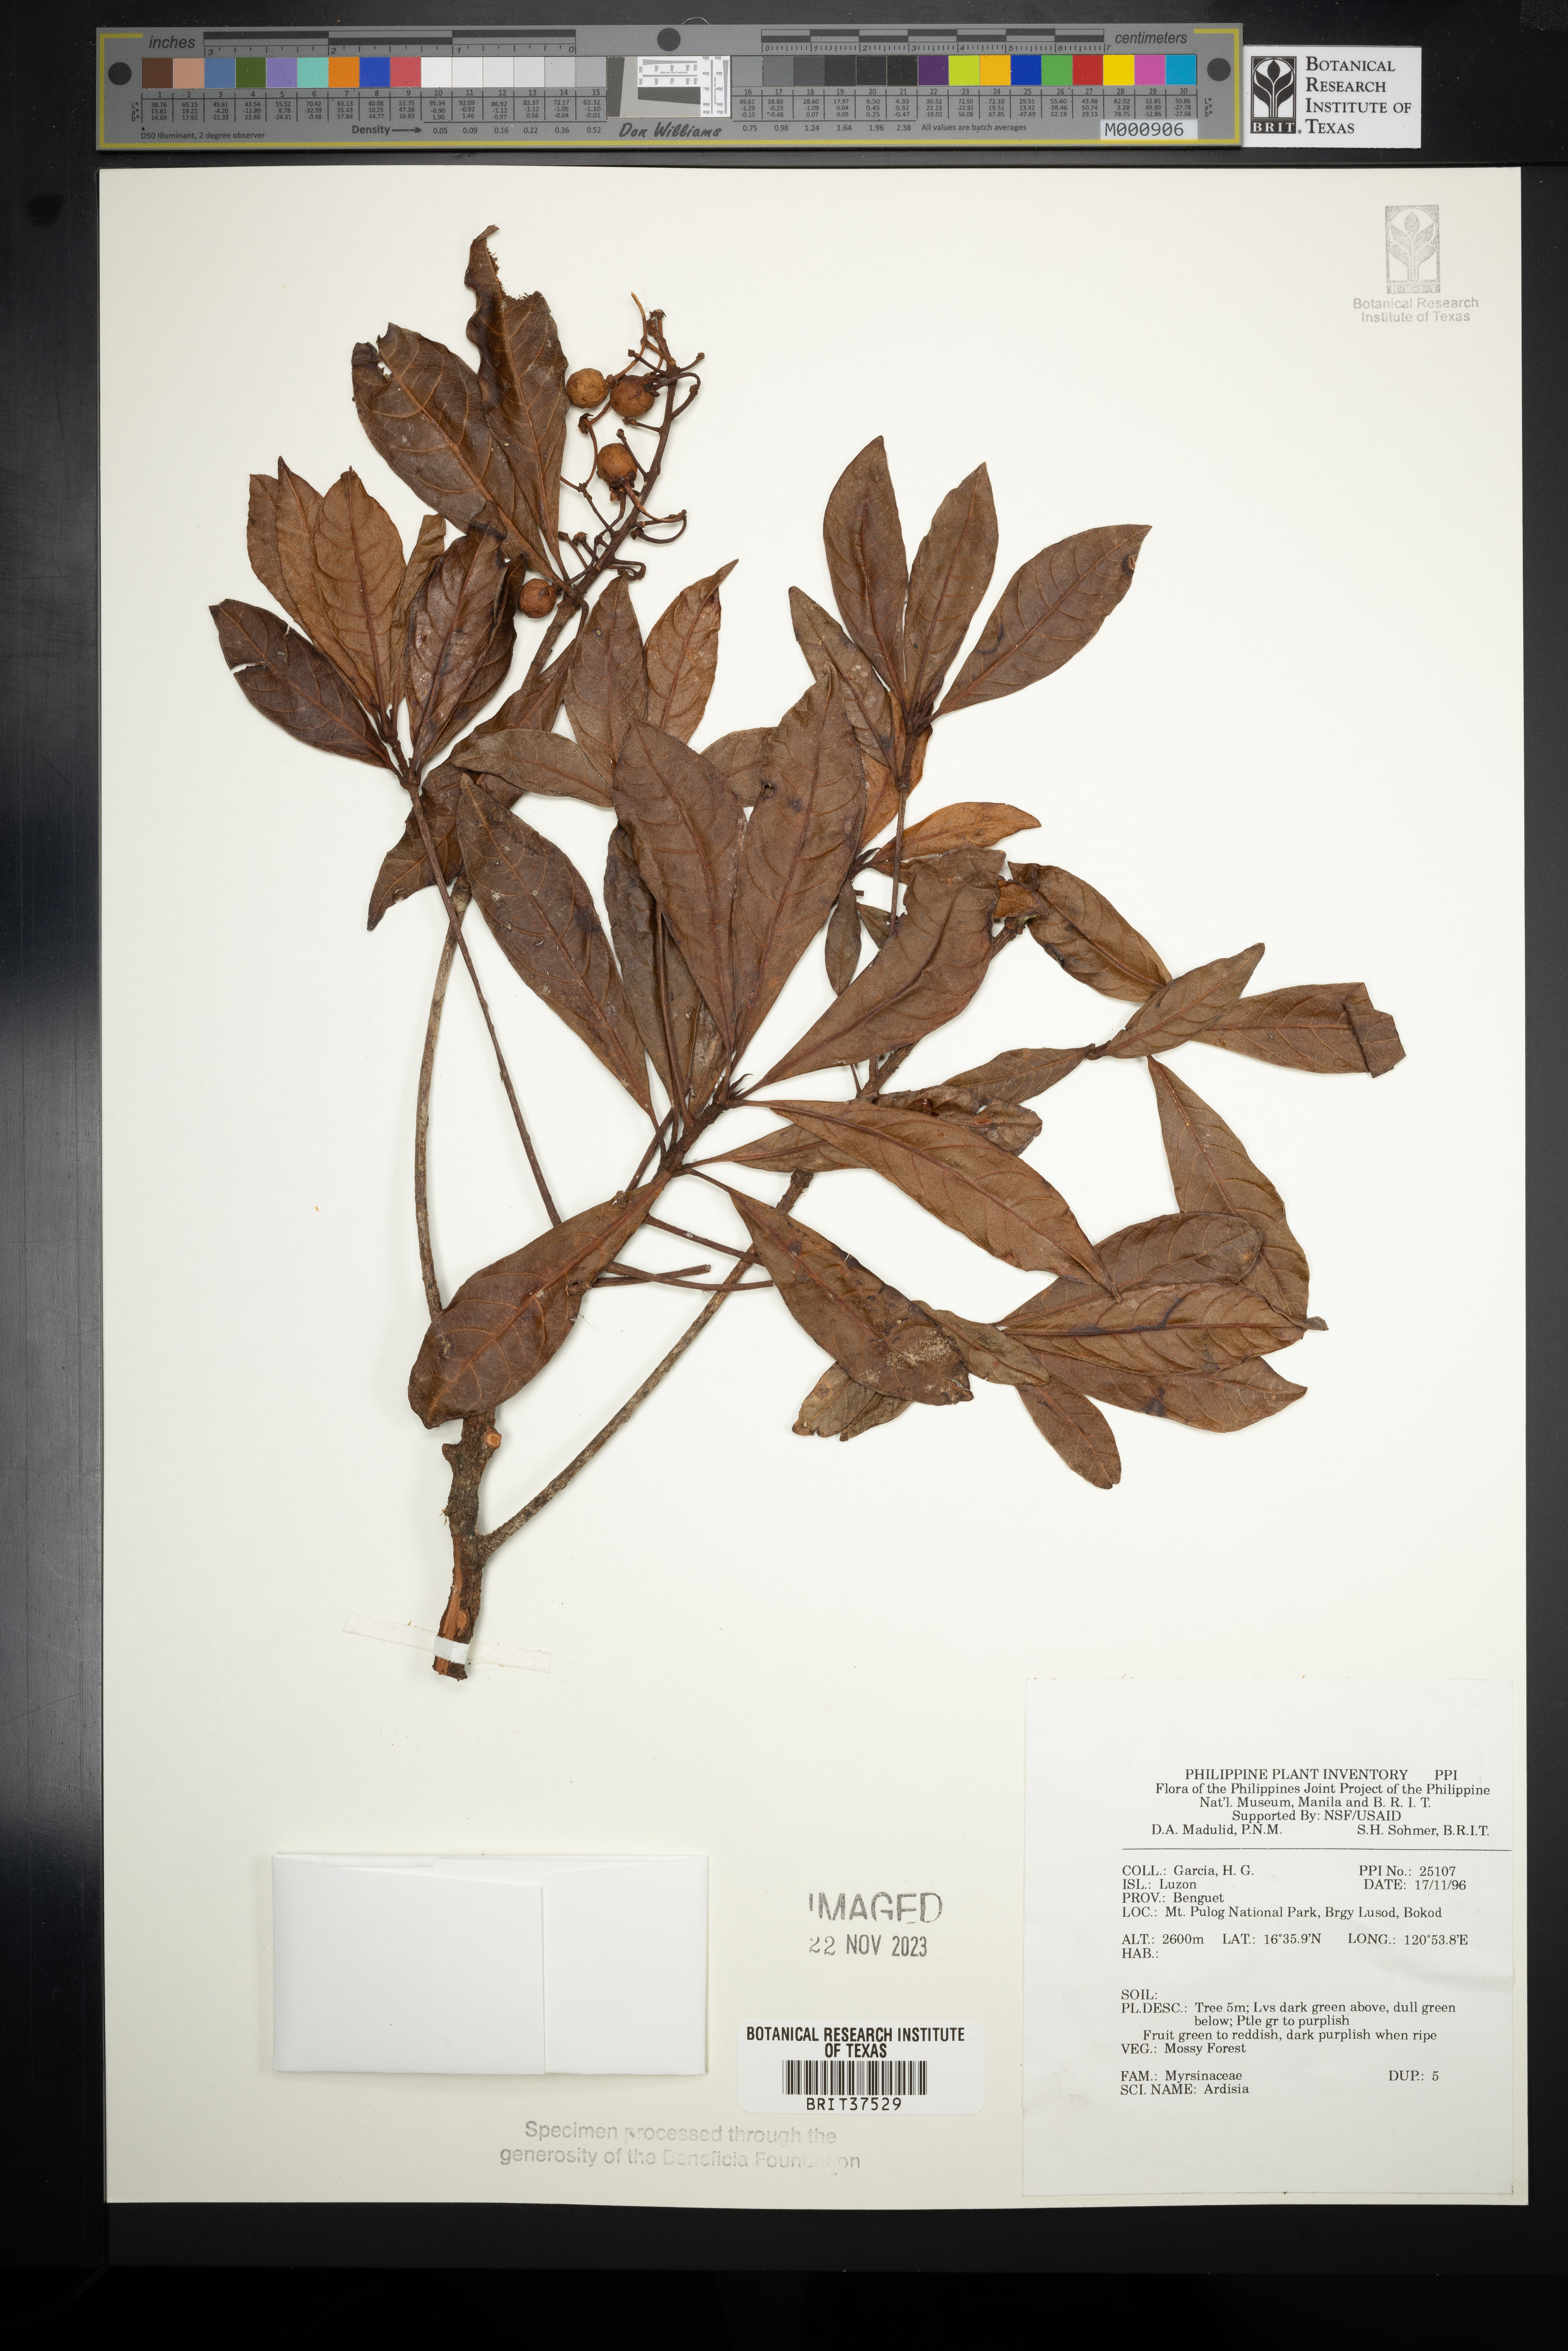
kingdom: Plantae
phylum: Tracheophyta
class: Magnoliopsida
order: Ericales
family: Primulaceae
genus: Ardisia
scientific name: Ardisia
